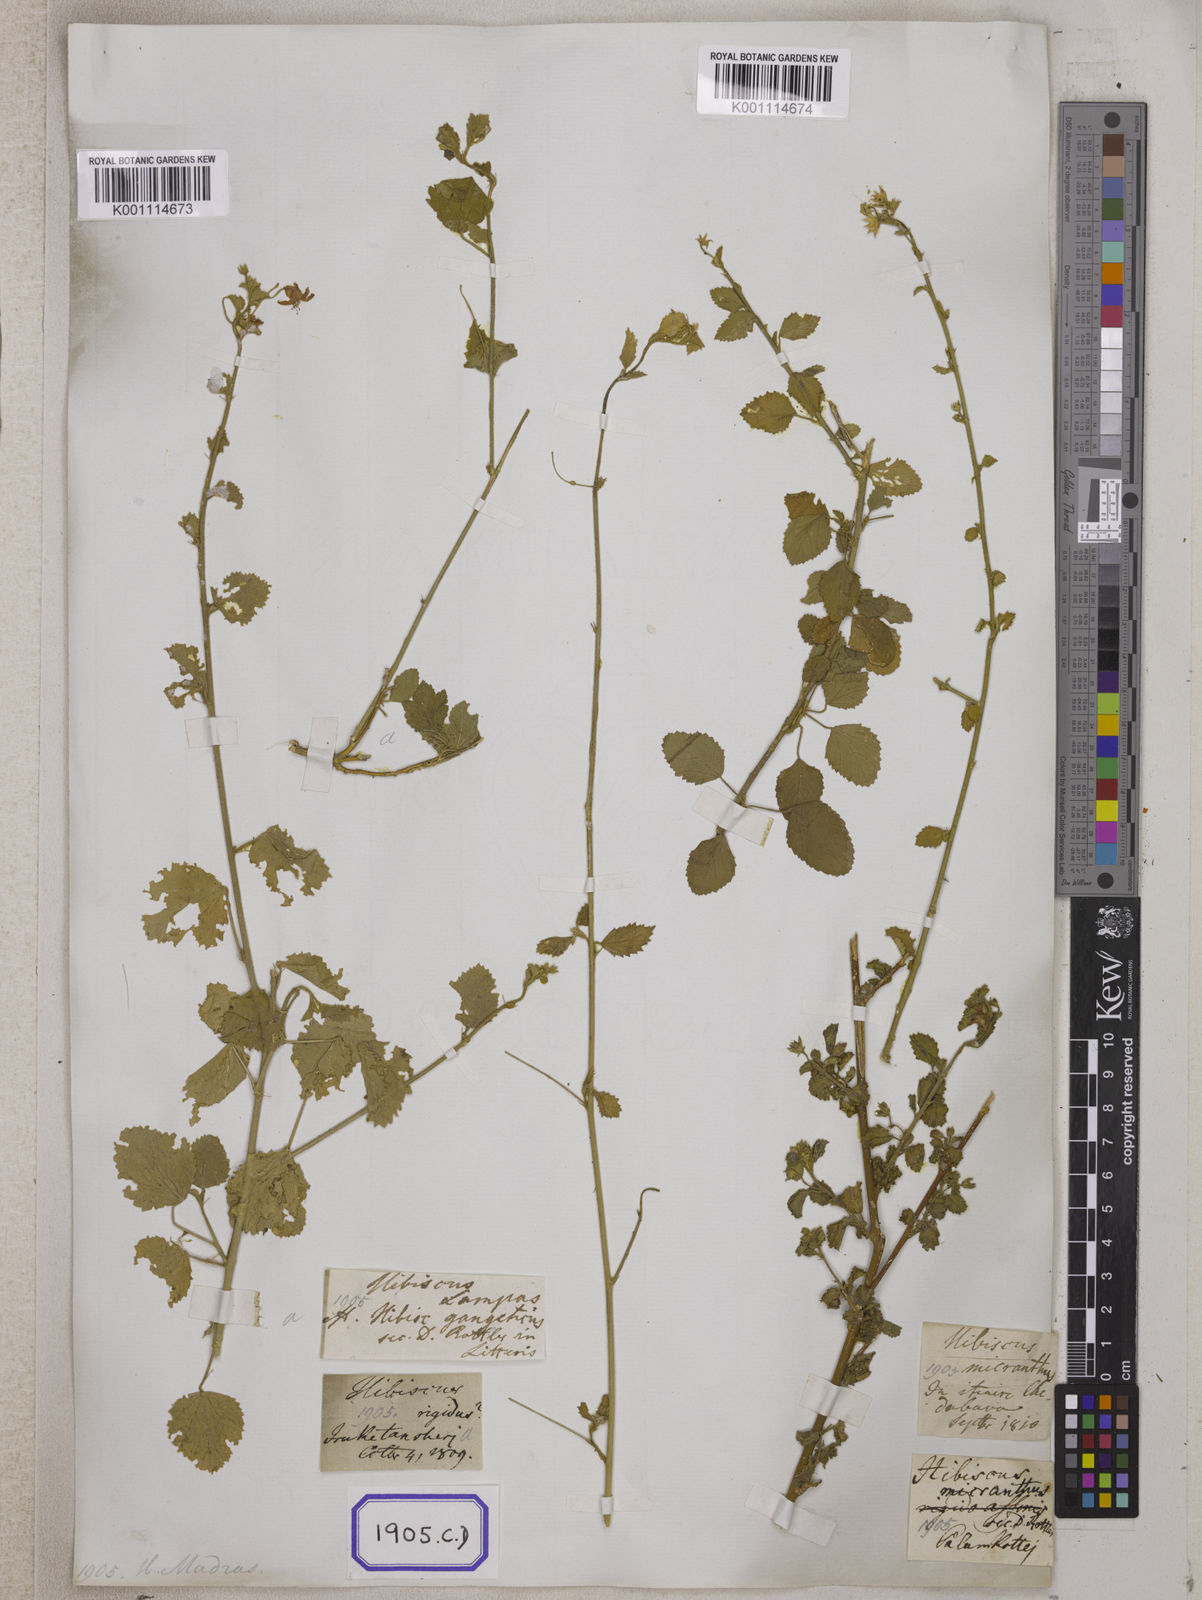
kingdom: Plantae
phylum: Tracheophyta
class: Magnoliopsida
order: Malvales
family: Malvaceae
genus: Hibiscus
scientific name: Hibiscus micranthus
